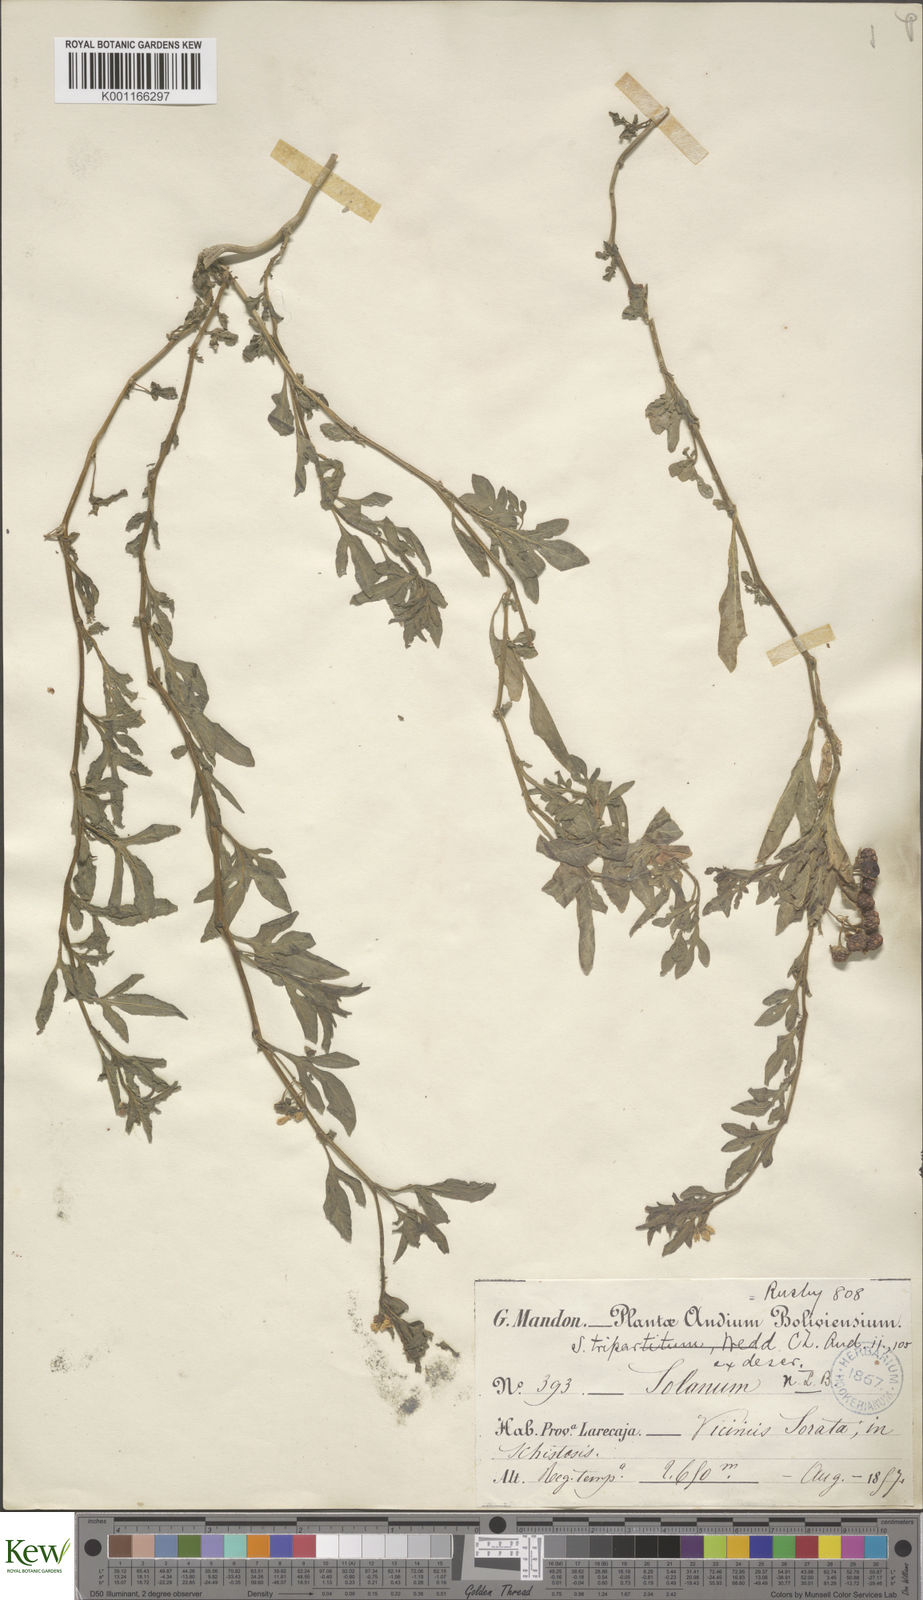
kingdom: Plantae
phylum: Tracheophyta
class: Magnoliopsida
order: Solanales
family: Solanaceae
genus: Solanum
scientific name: Solanum tripartitum
